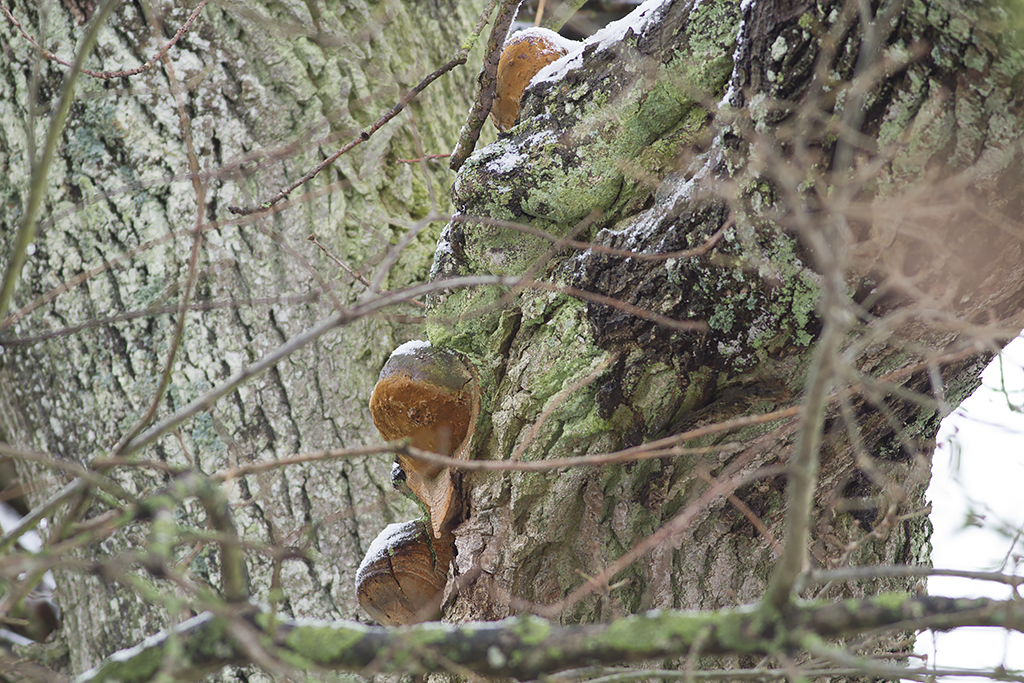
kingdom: Fungi
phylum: Basidiomycota
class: Agaricomycetes
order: Hymenochaetales
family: Hymenochaetaceae
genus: Fomitiporia
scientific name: Fomitiporia robusta
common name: ege-ildporesvamp
